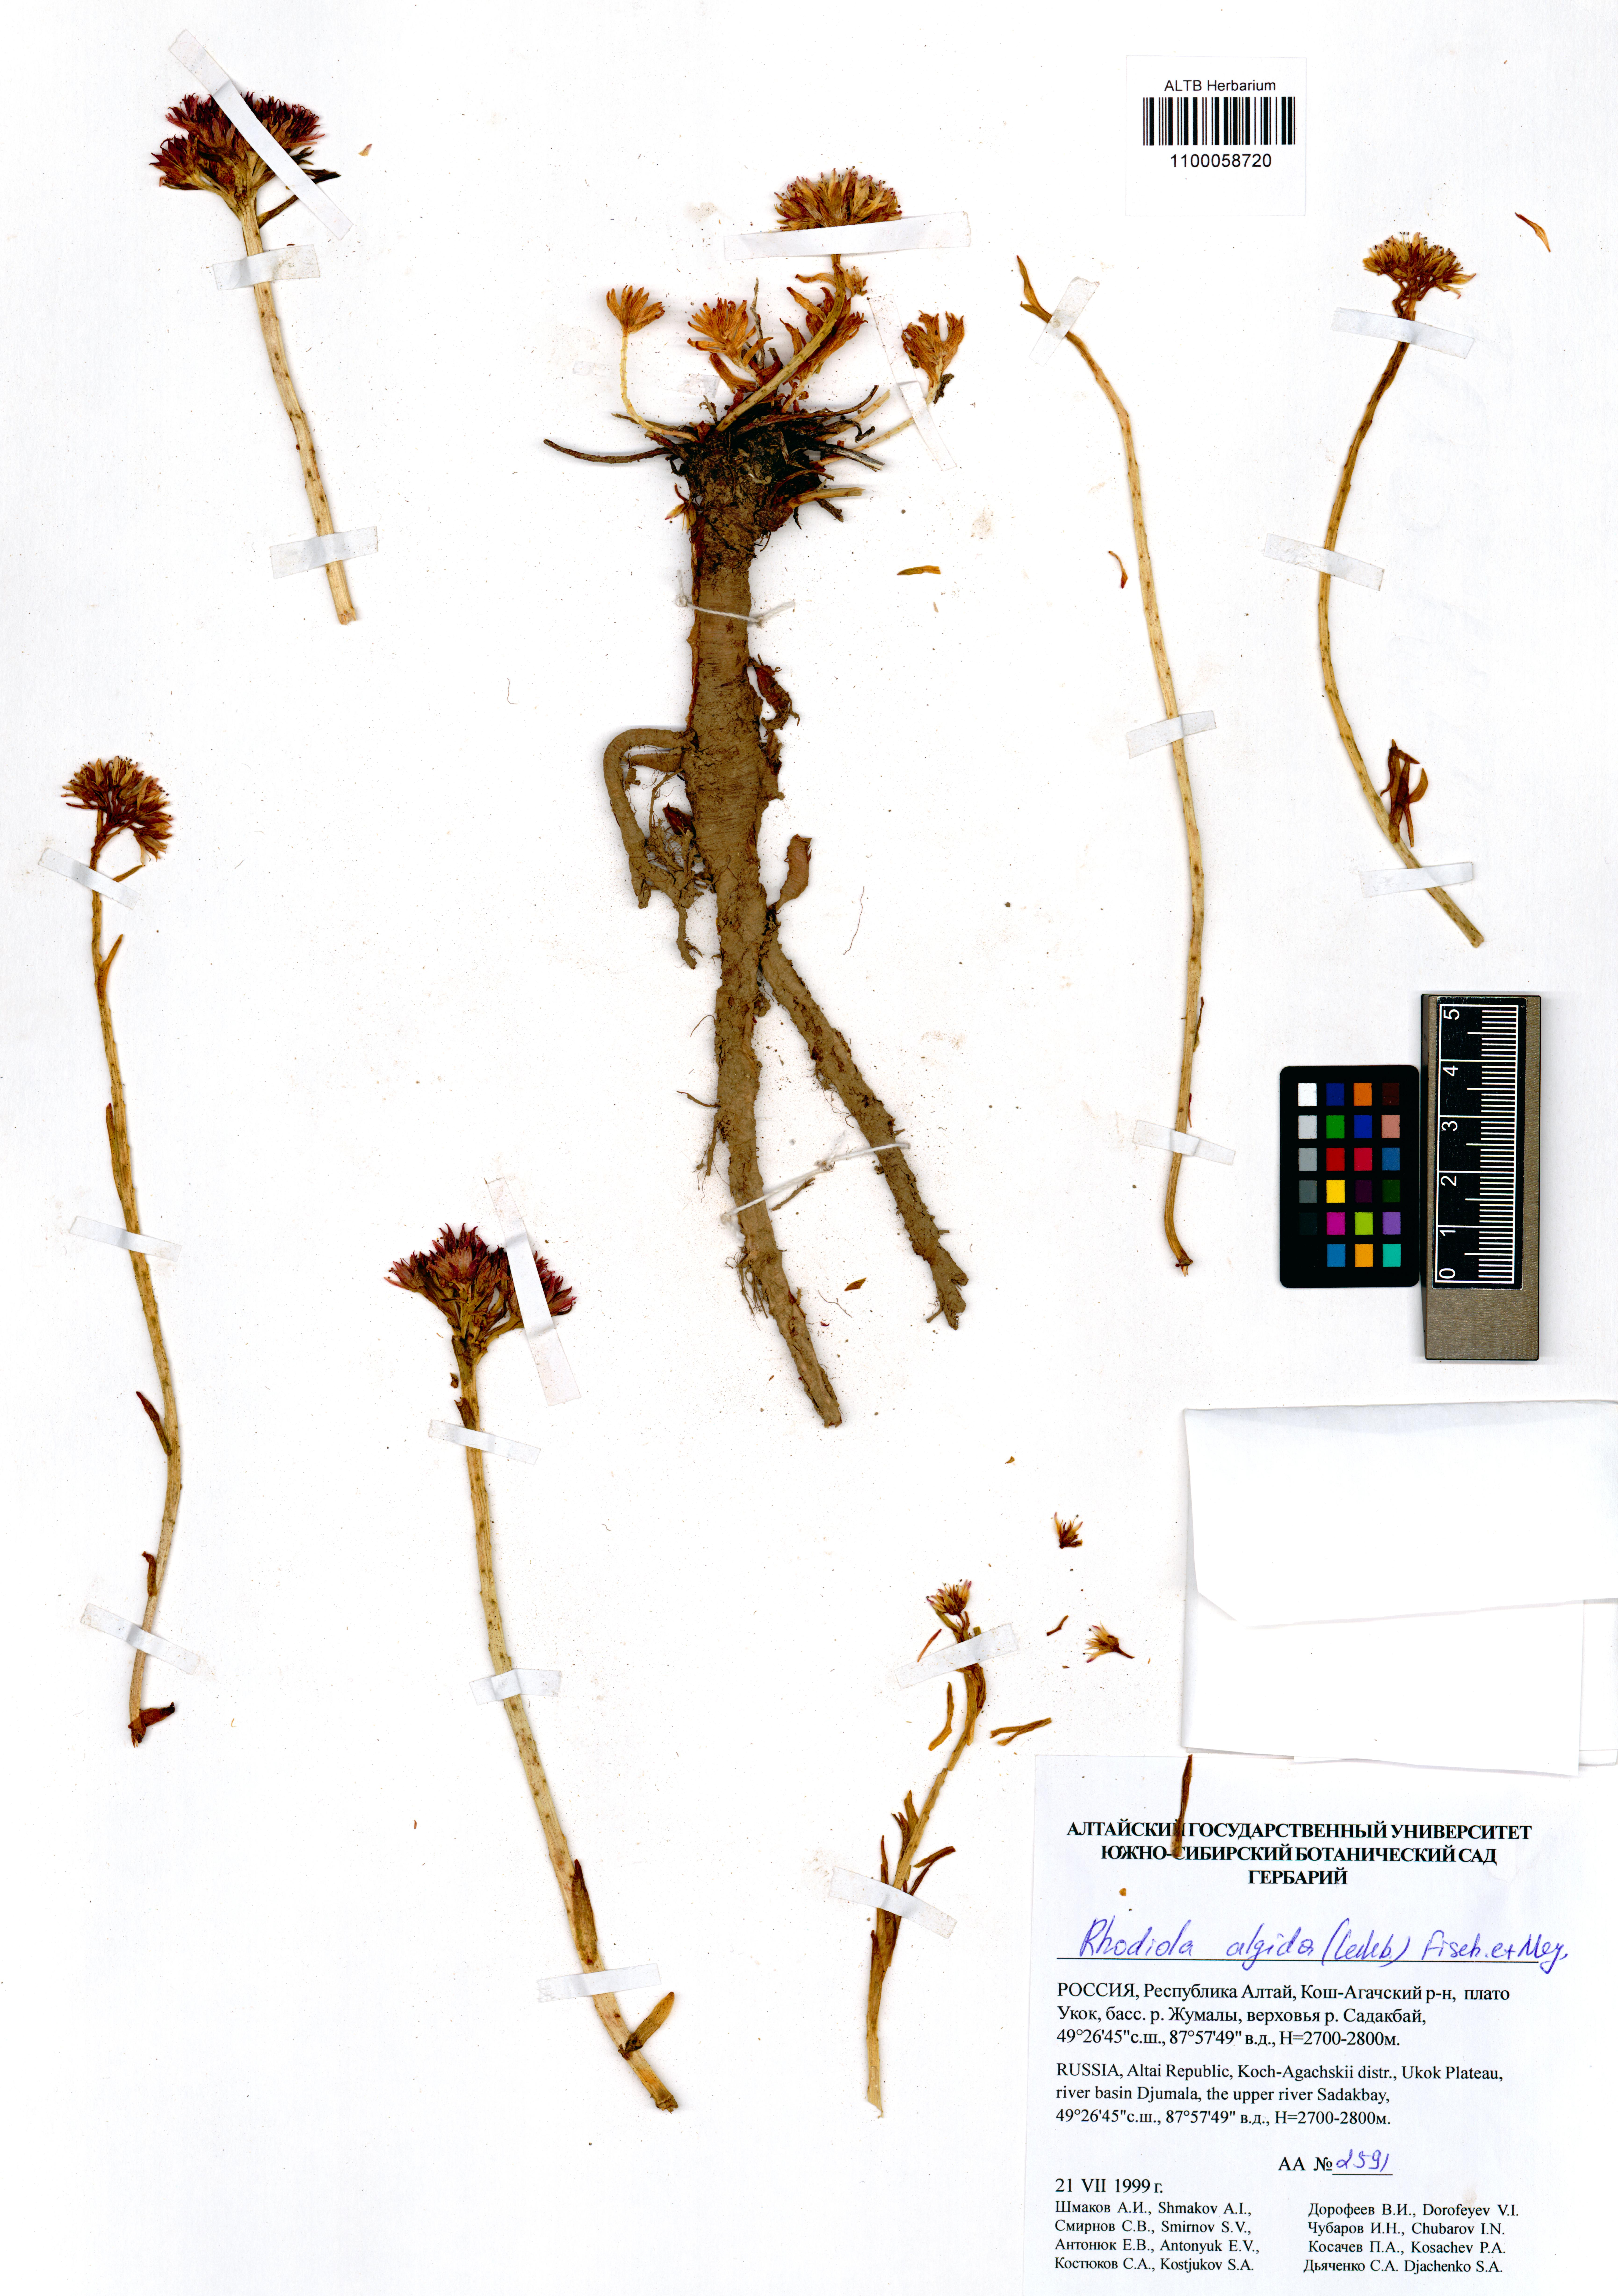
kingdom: Plantae
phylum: Tracheophyta
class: Magnoliopsida
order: Saxifragales
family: Crassulaceae
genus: Rhodiola
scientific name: Rhodiola algida
